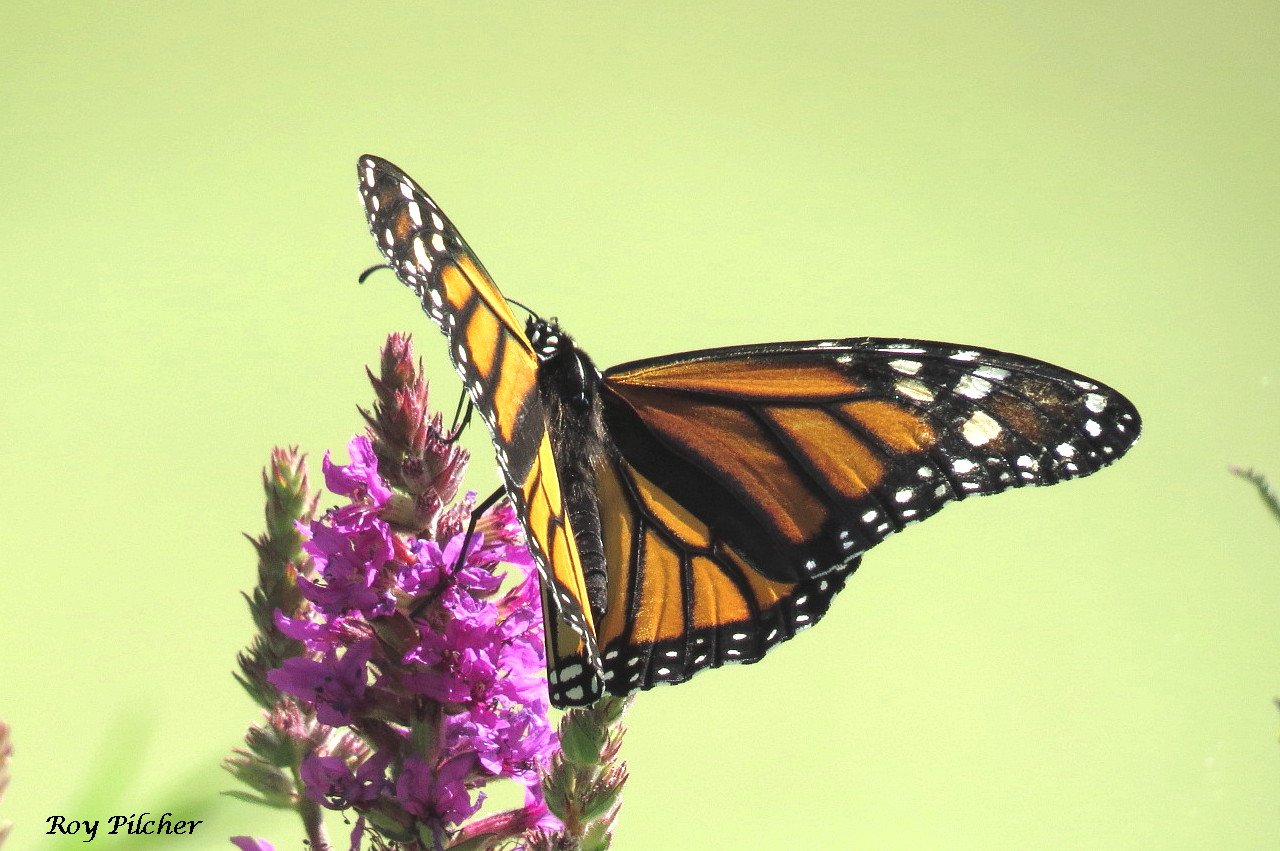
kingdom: Animalia
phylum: Arthropoda
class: Insecta
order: Lepidoptera
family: Nymphalidae
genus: Danaus
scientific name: Danaus plexippus
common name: Monarch
